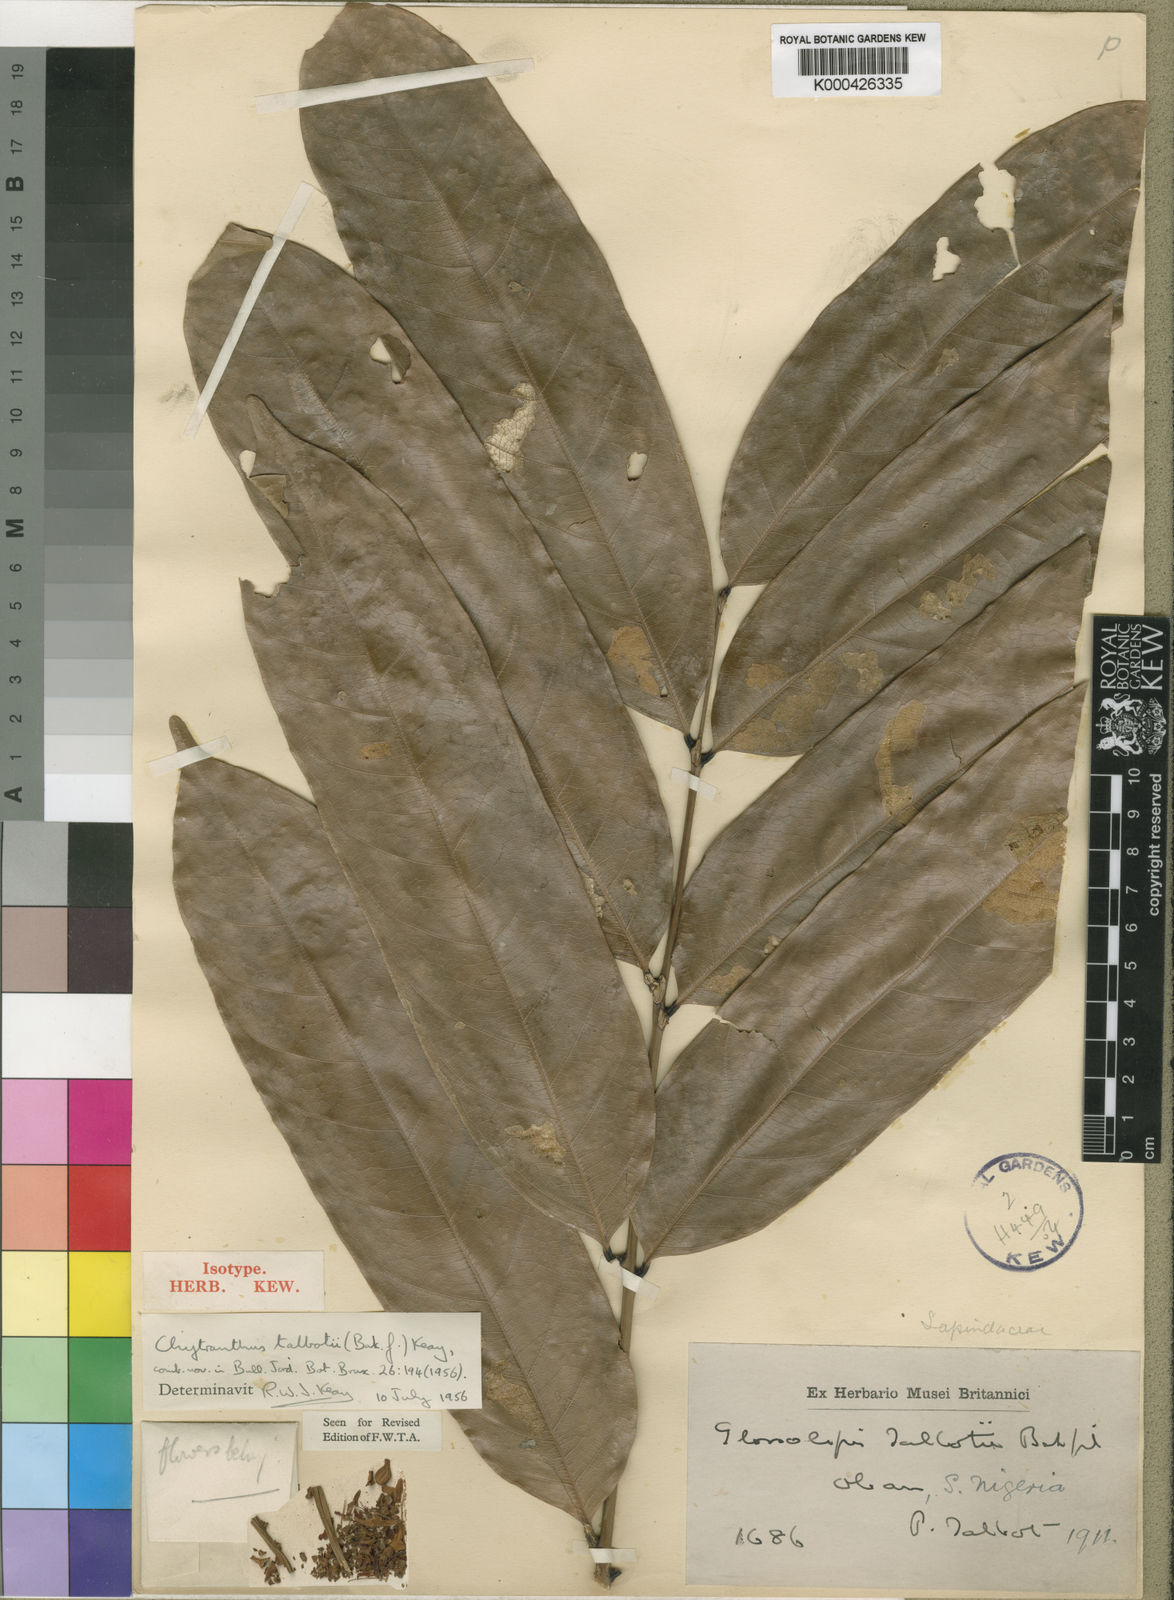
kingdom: Plantae
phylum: Tracheophyta
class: Magnoliopsida
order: Sapindales
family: Sapindaceae
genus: Chytranthus
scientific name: Chytranthus talbotii
